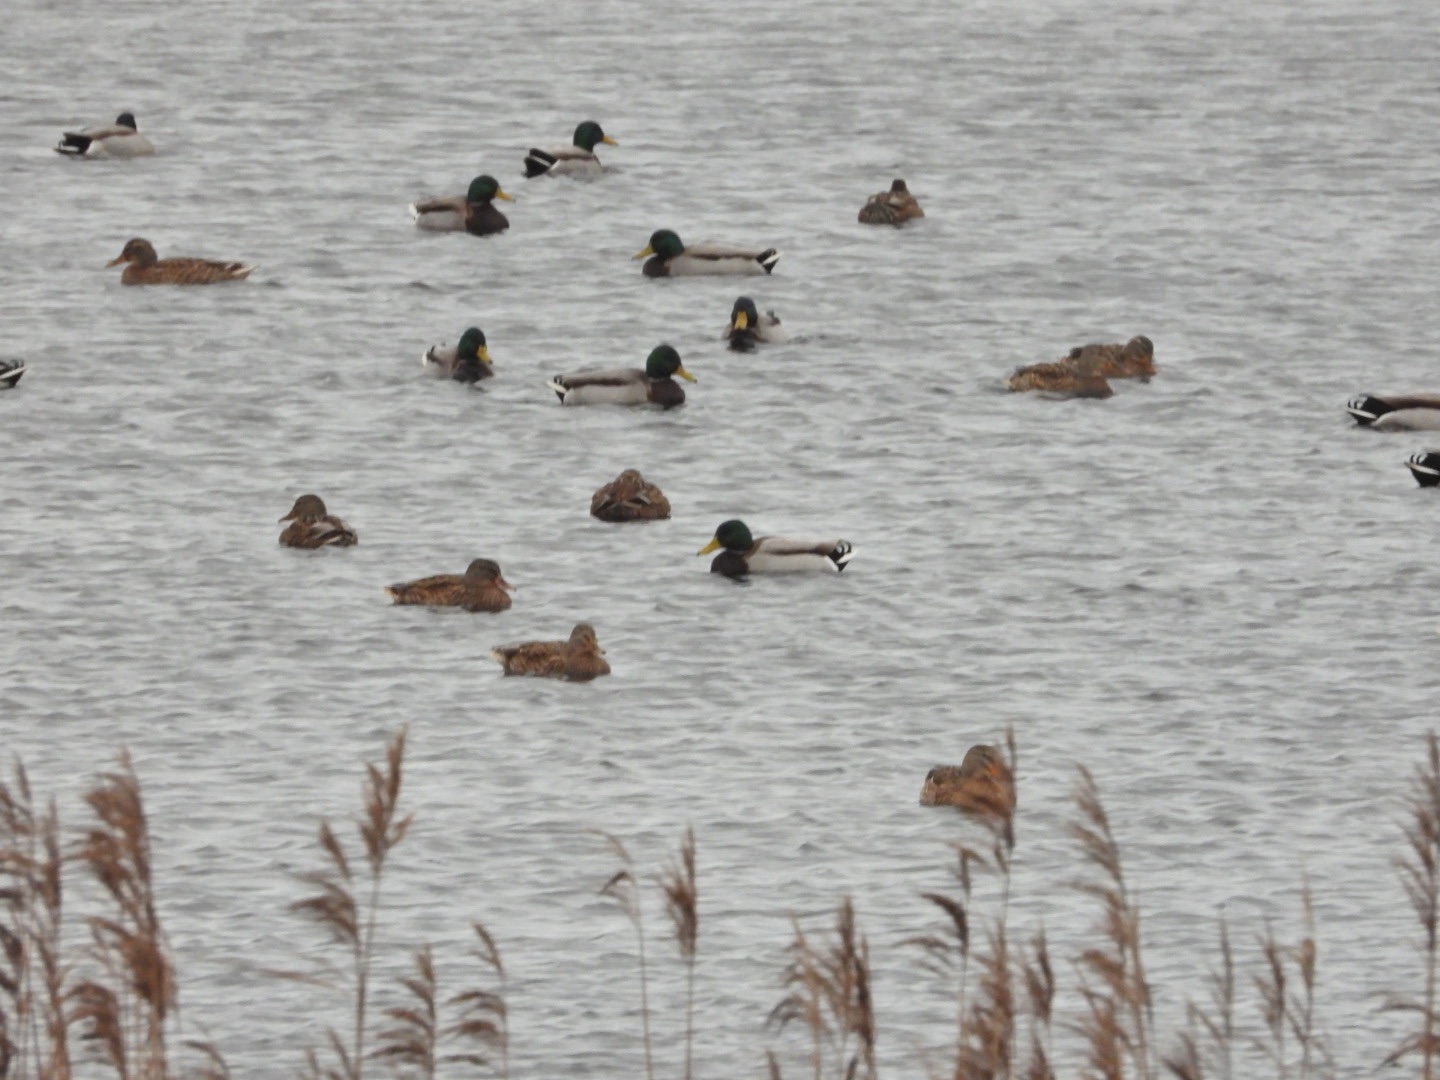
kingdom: Animalia
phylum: Chordata
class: Aves
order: Anseriformes
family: Anatidae
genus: Anas
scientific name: Anas platyrhynchos
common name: Gråand
